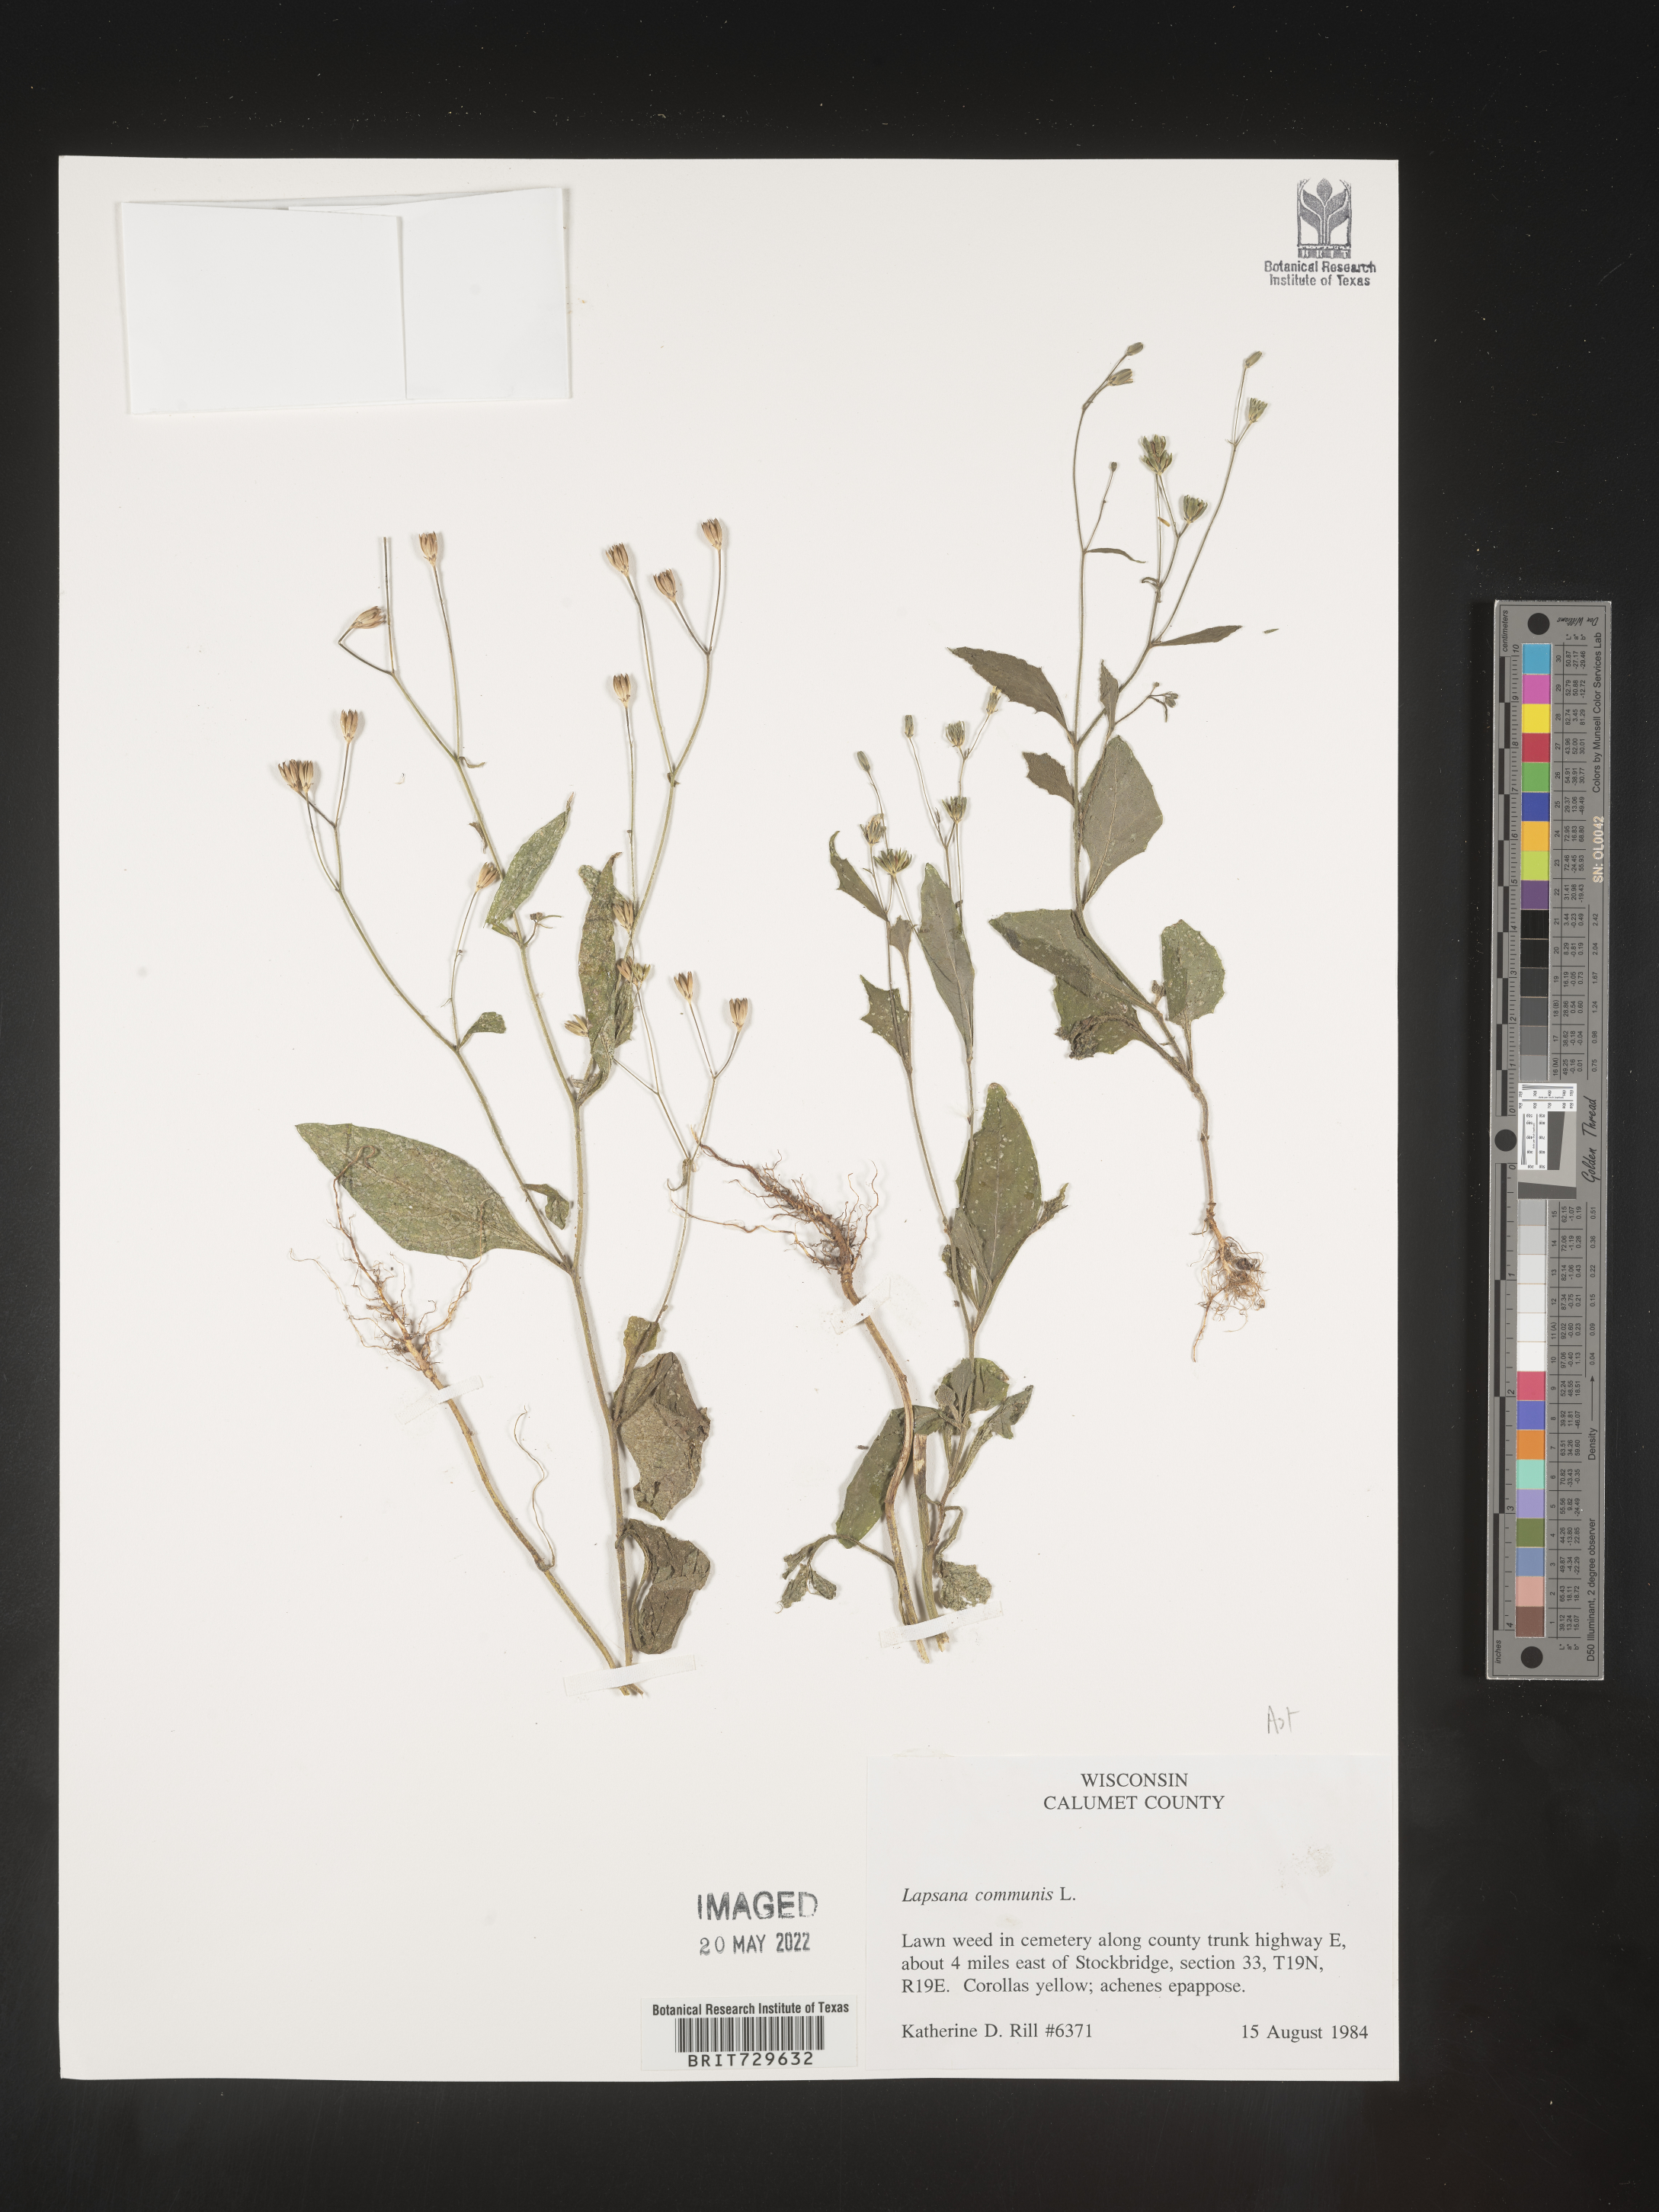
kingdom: Plantae
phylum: Tracheophyta
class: Magnoliopsida
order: Asterales
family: Asteraceae
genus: Lapsana
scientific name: Lapsana
